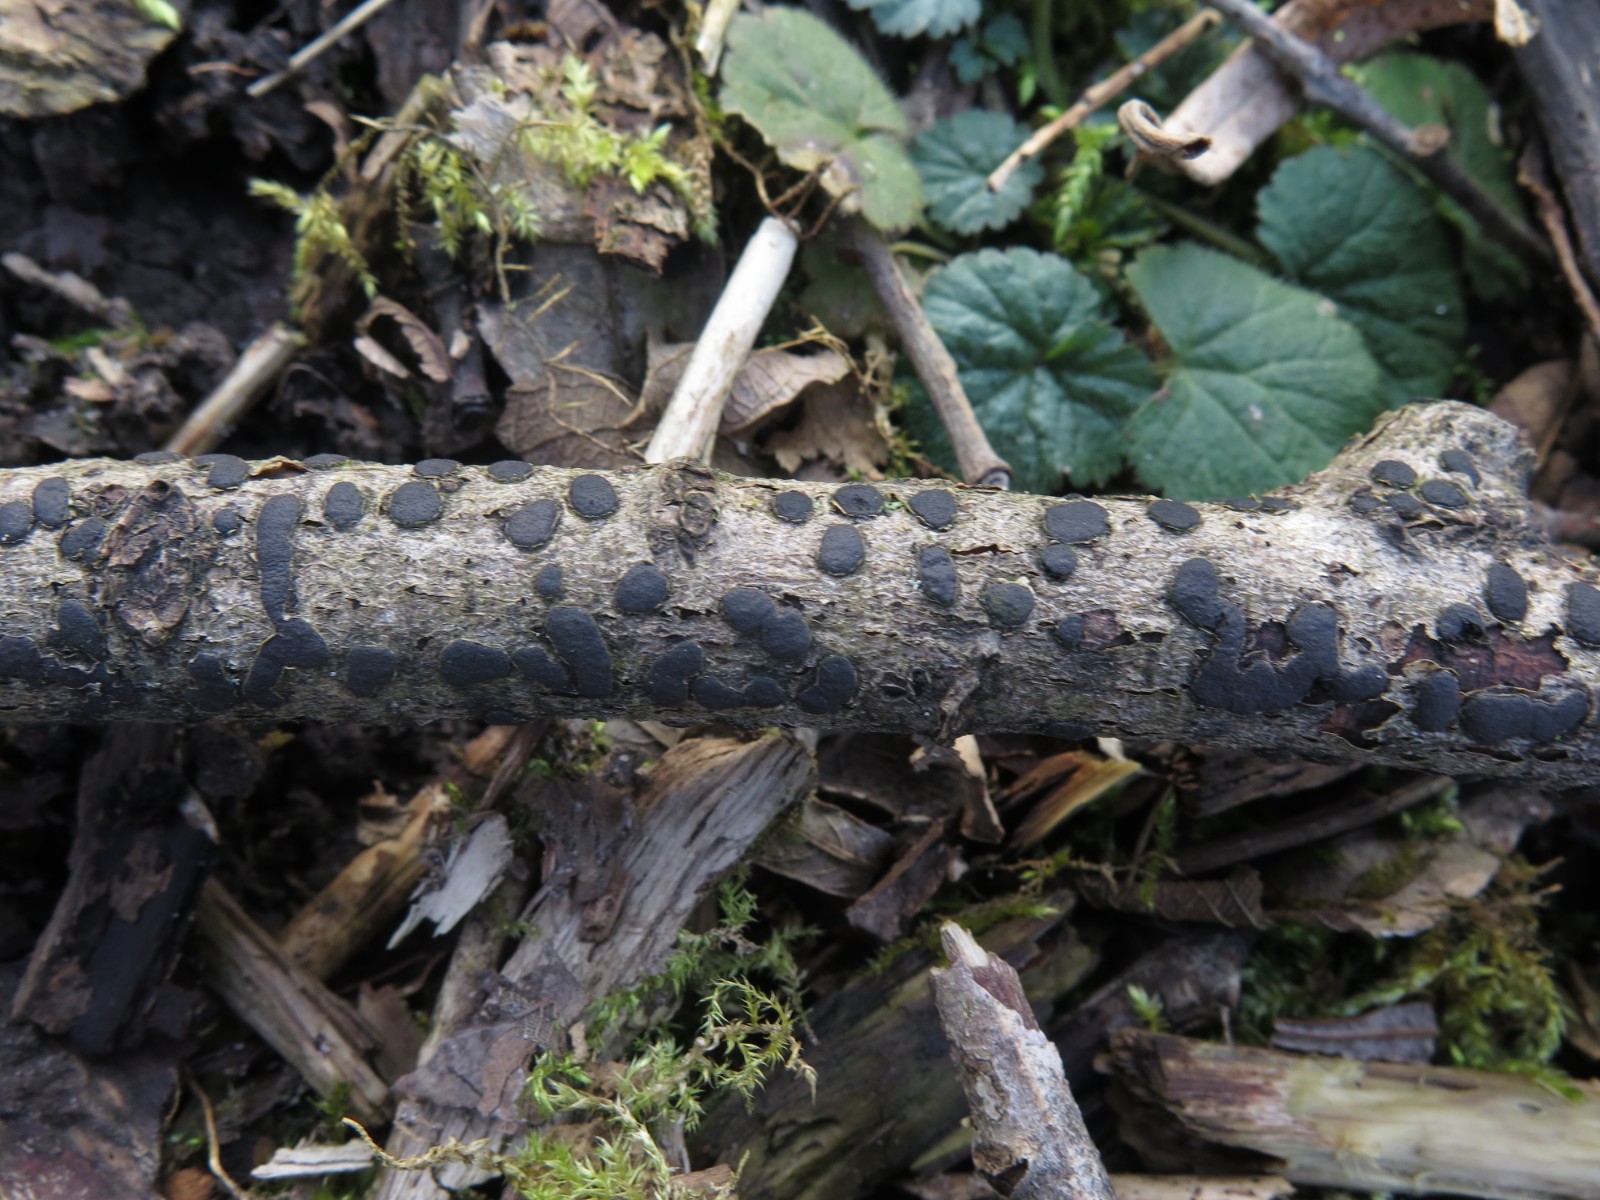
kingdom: Fungi
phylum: Ascomycota
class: Sordariomycetes
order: Xylariales
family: Diatrypaceae
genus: Diatrype
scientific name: Diatrype bullata
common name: pile-kulskorpe
